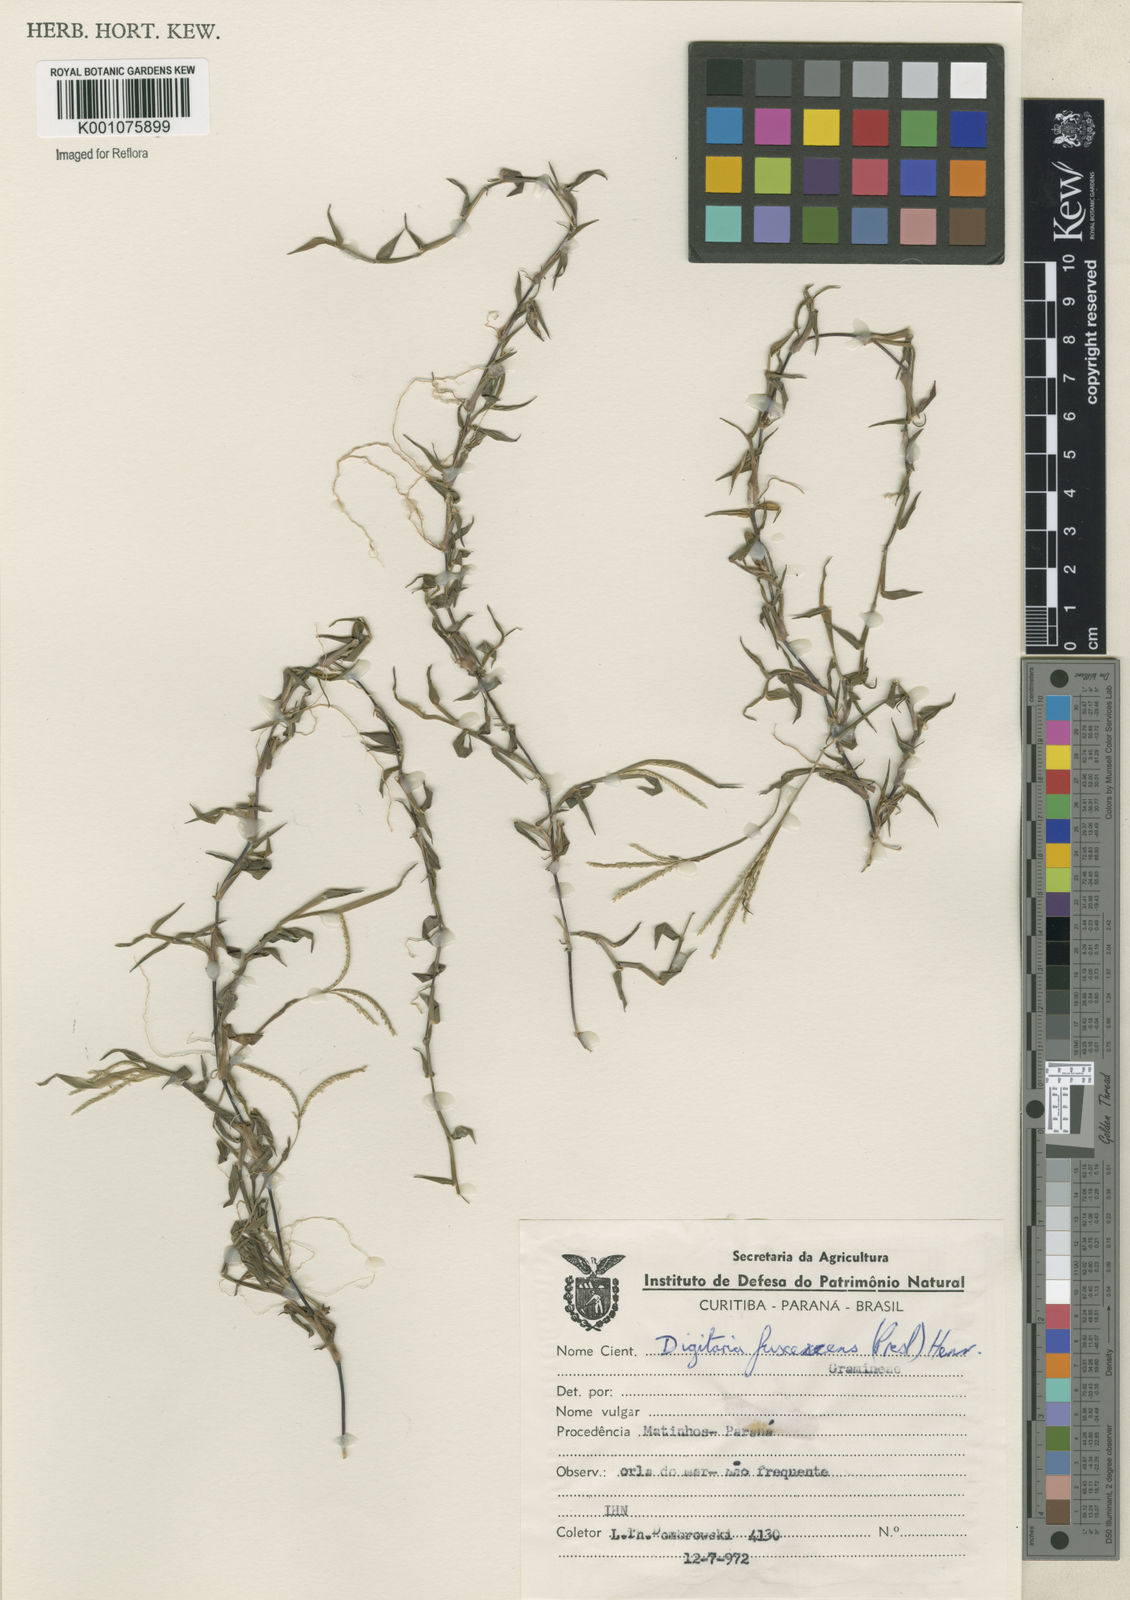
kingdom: Plantae
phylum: Tracheophyta
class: Liliopsida
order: Poales
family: Poaceae
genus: Digitaria
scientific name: Digitaria fuscescens
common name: Yellow crabgrass
